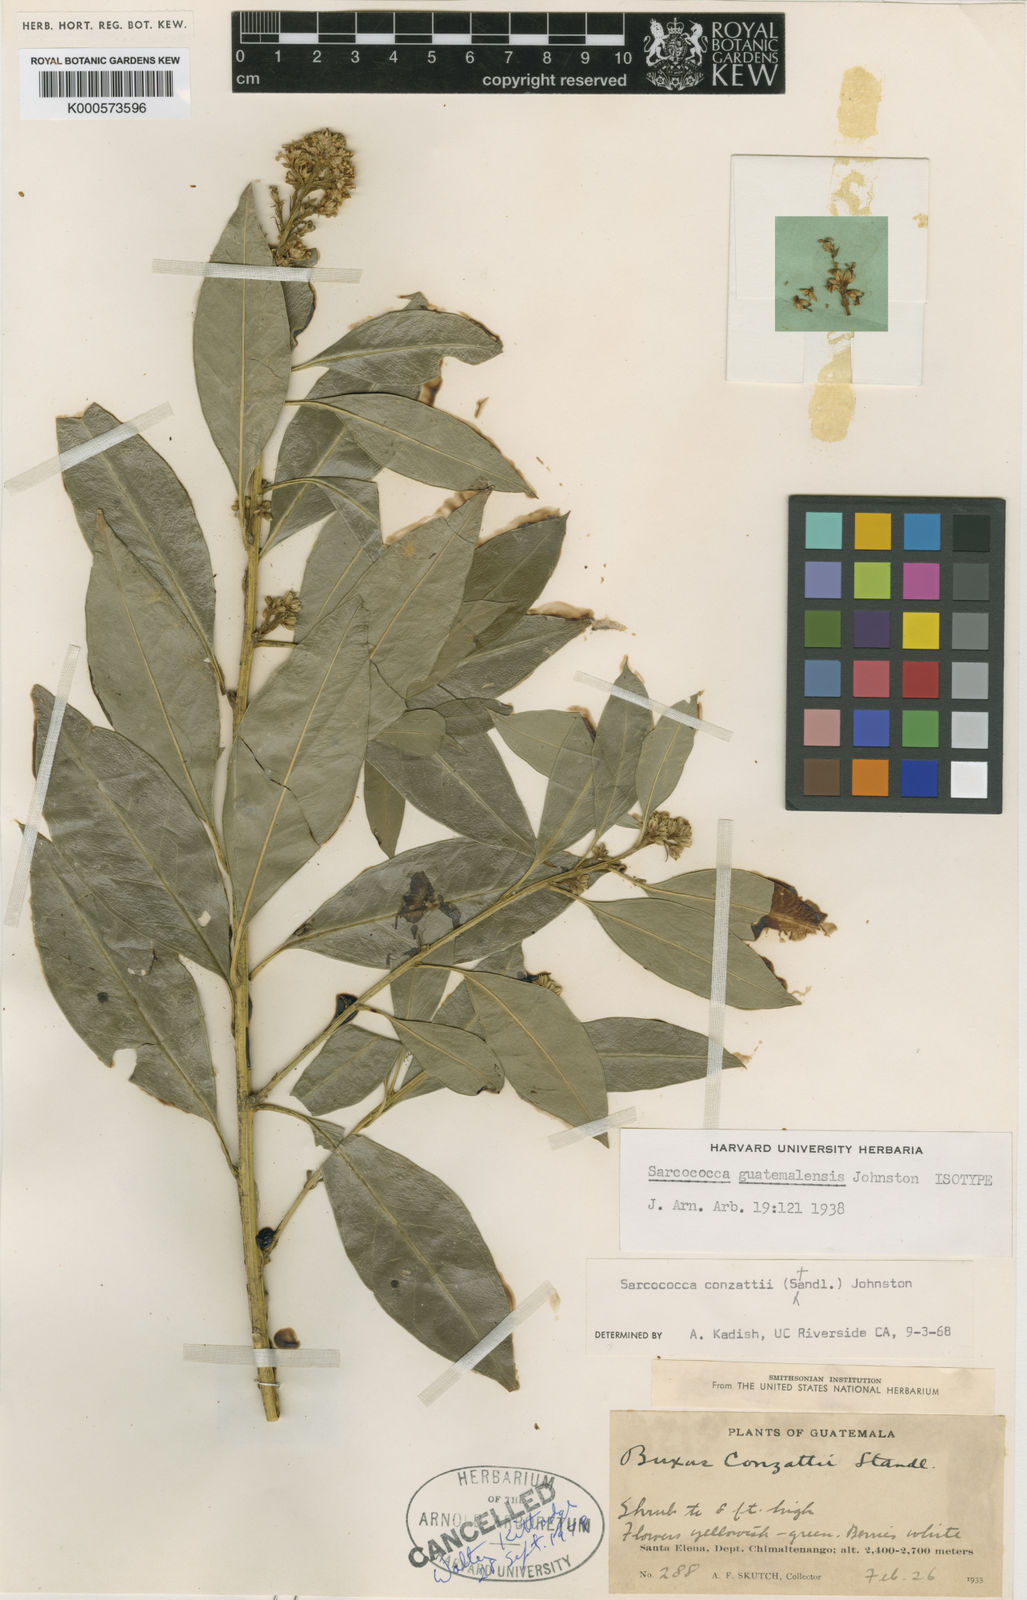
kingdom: Plantae
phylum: Tracheophyta
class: Magnoliopsida
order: Buxales
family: Buxaceae
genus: Sarcococca
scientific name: Sarcococca conzattii
